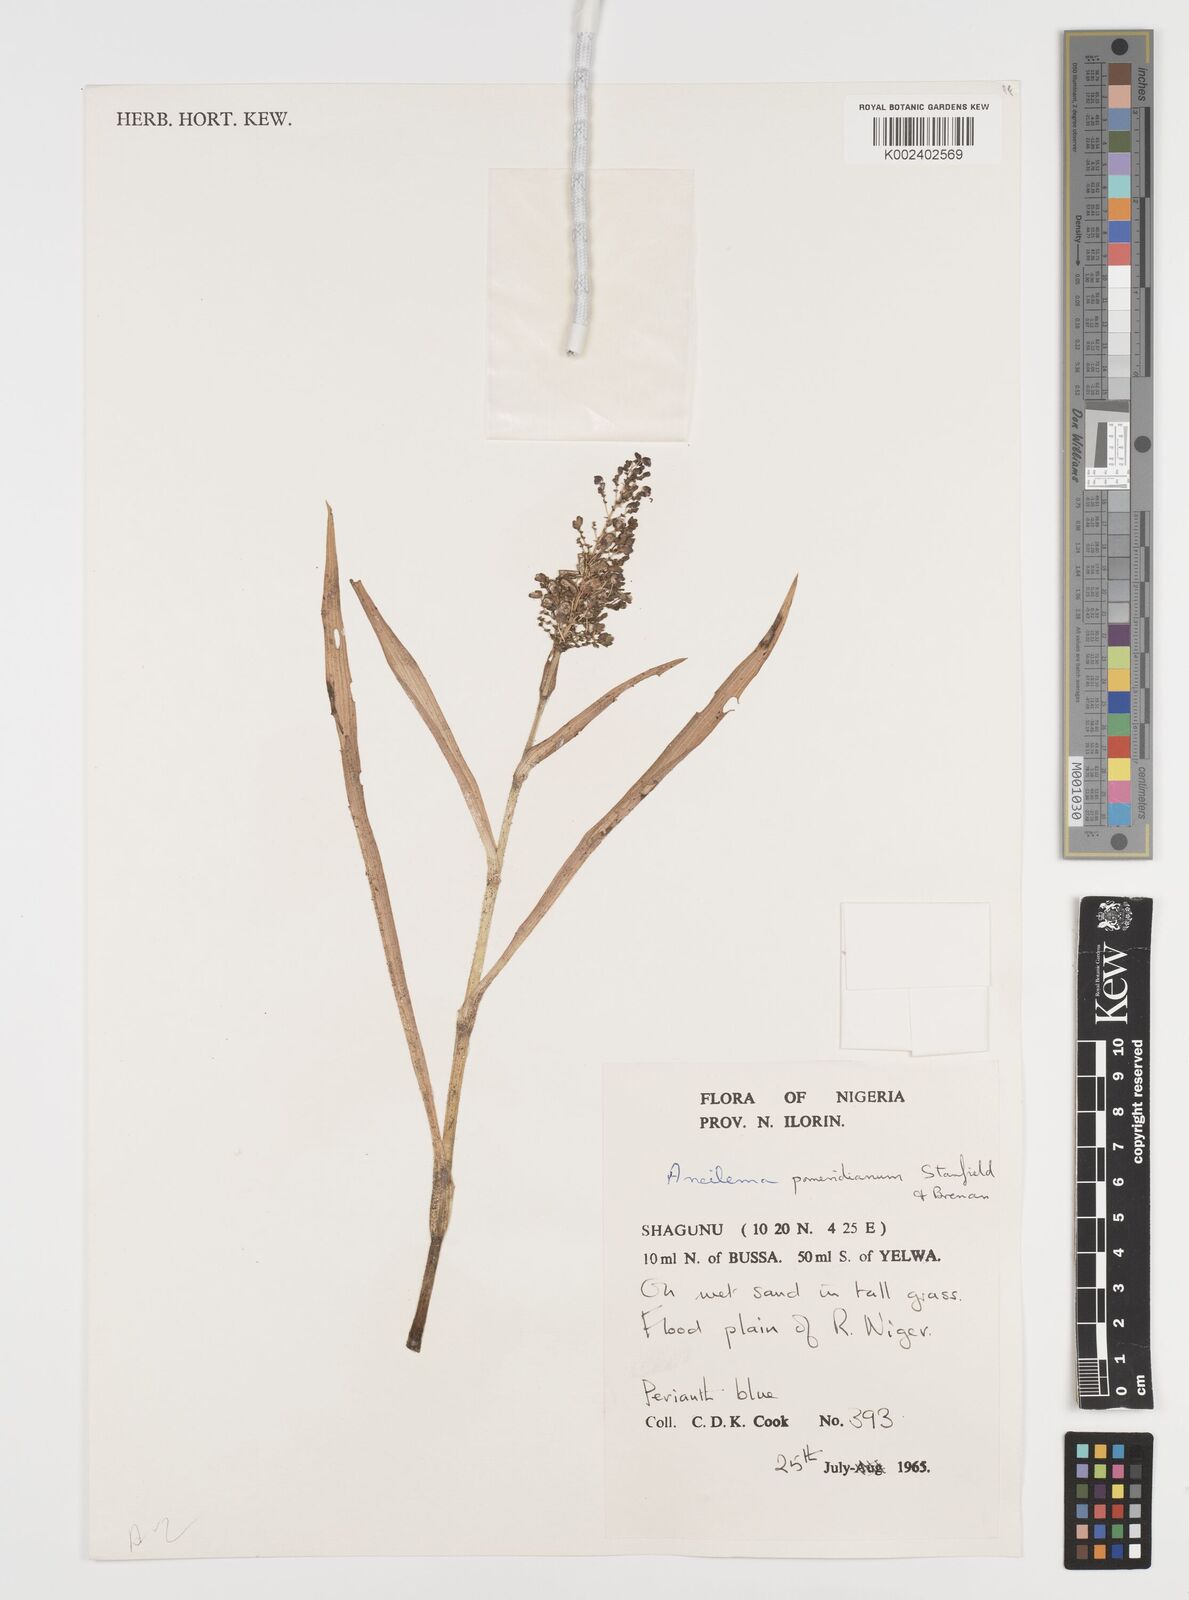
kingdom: Plantae
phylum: Tracheophyta
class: Liliopsida
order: Commelinales
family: Commelinaceae
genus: Aneilema
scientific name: Aneilema pomeridianum
